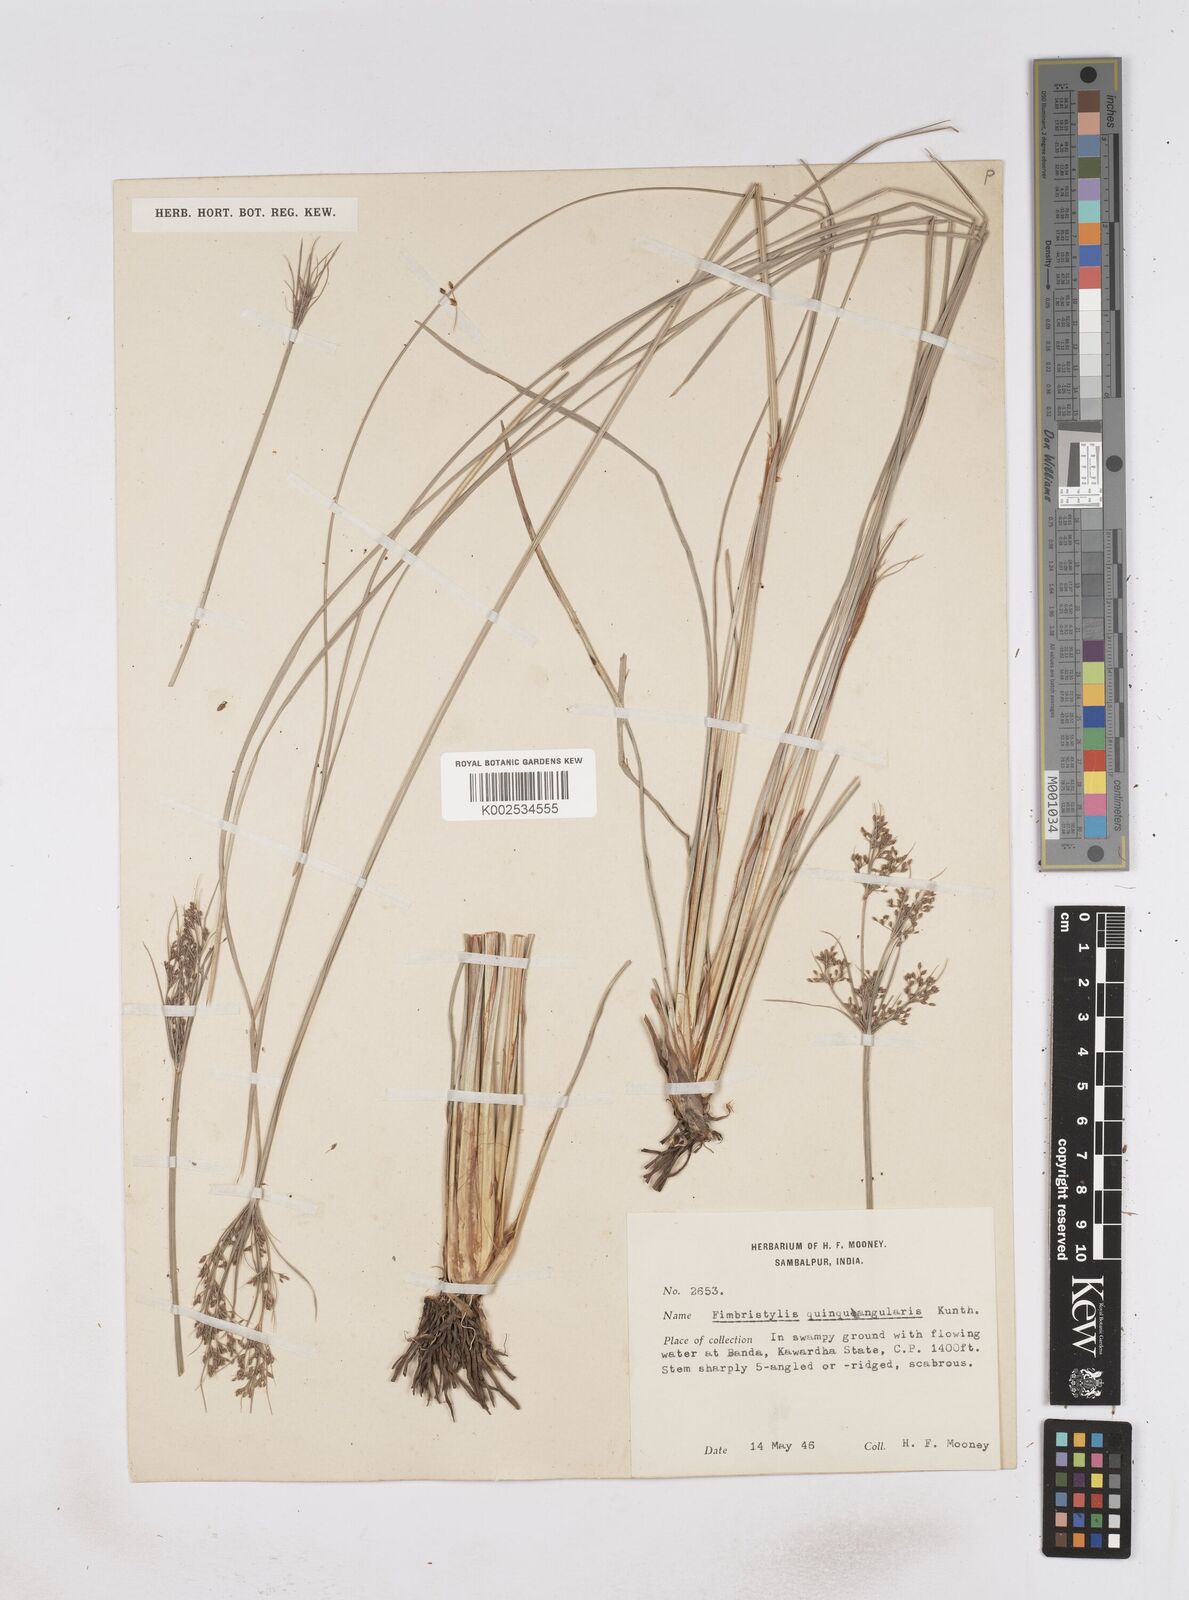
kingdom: Plantae
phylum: Tracheophyta
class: Liliopsida
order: Poales
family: Cyperaceae
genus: Fimbristylis
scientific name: Fimbristylis quinquangularis
